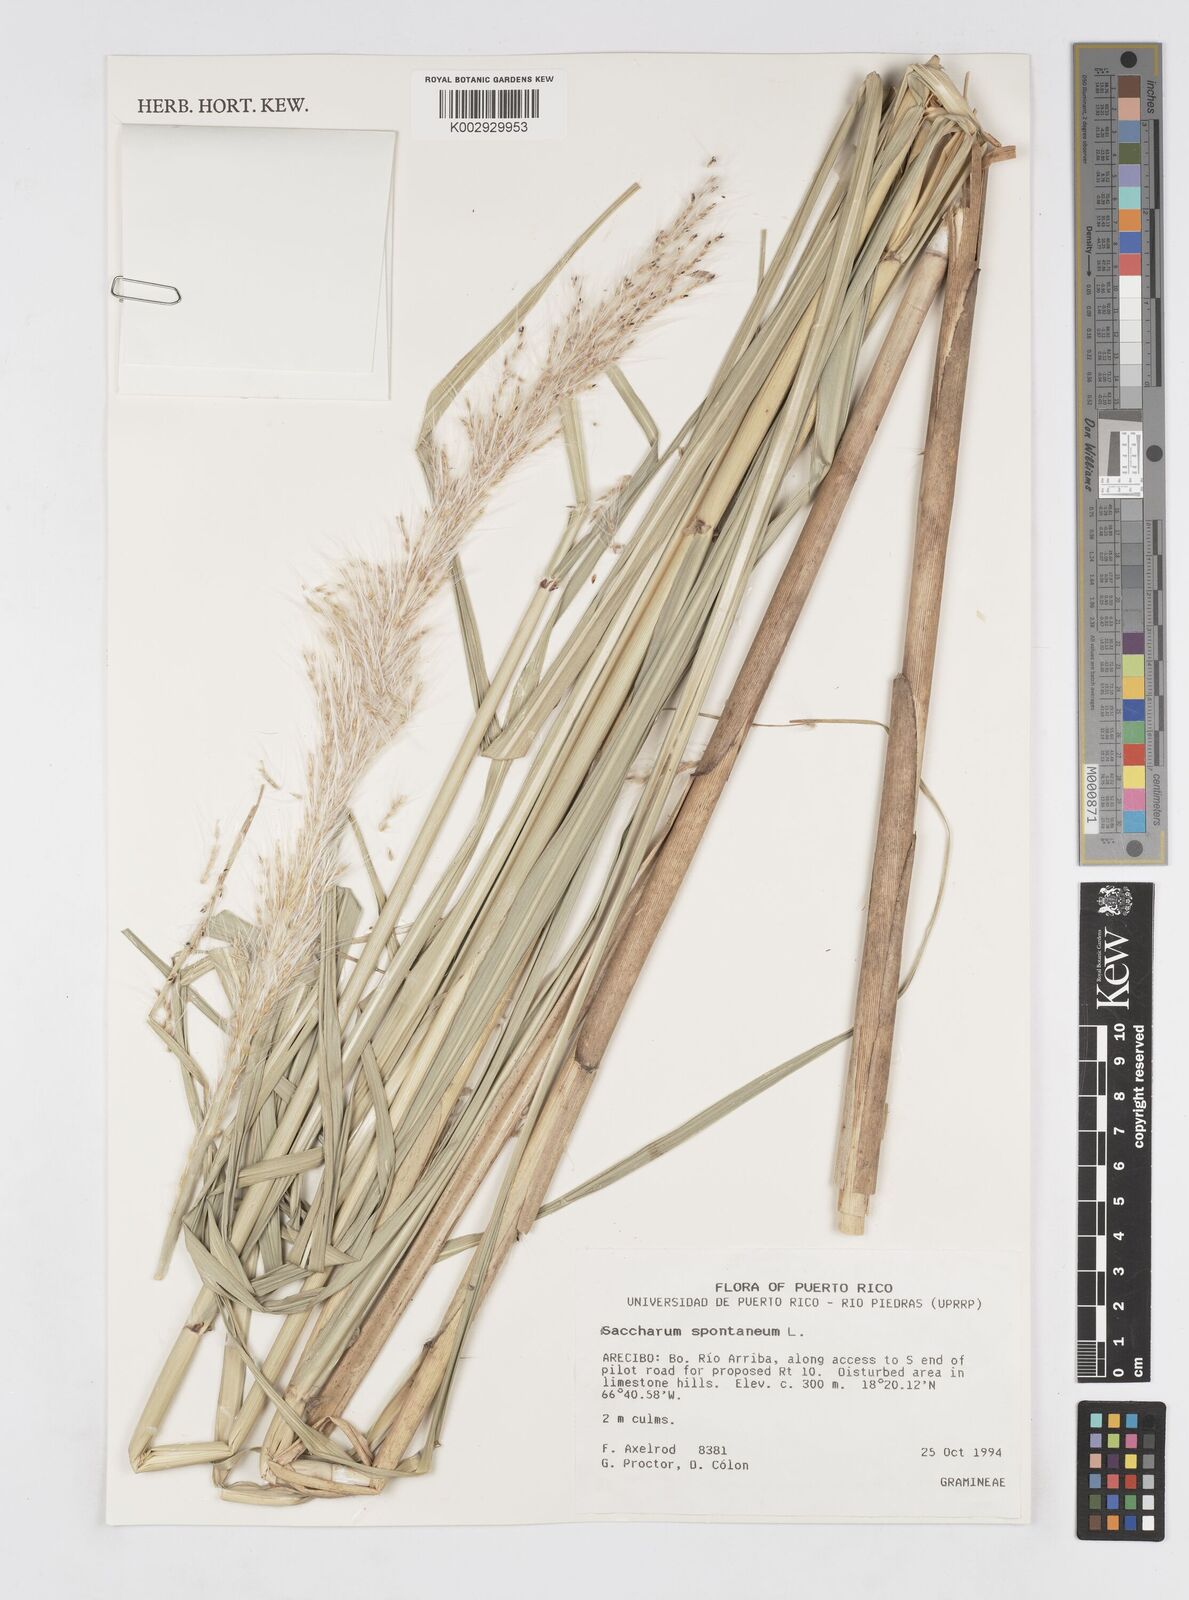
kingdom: Plantae
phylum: Tracheophyta
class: Liliopsida
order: Poales
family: Poaceae
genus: Saccharum
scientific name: Saccharum spontaneum
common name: Wild sugarcane
